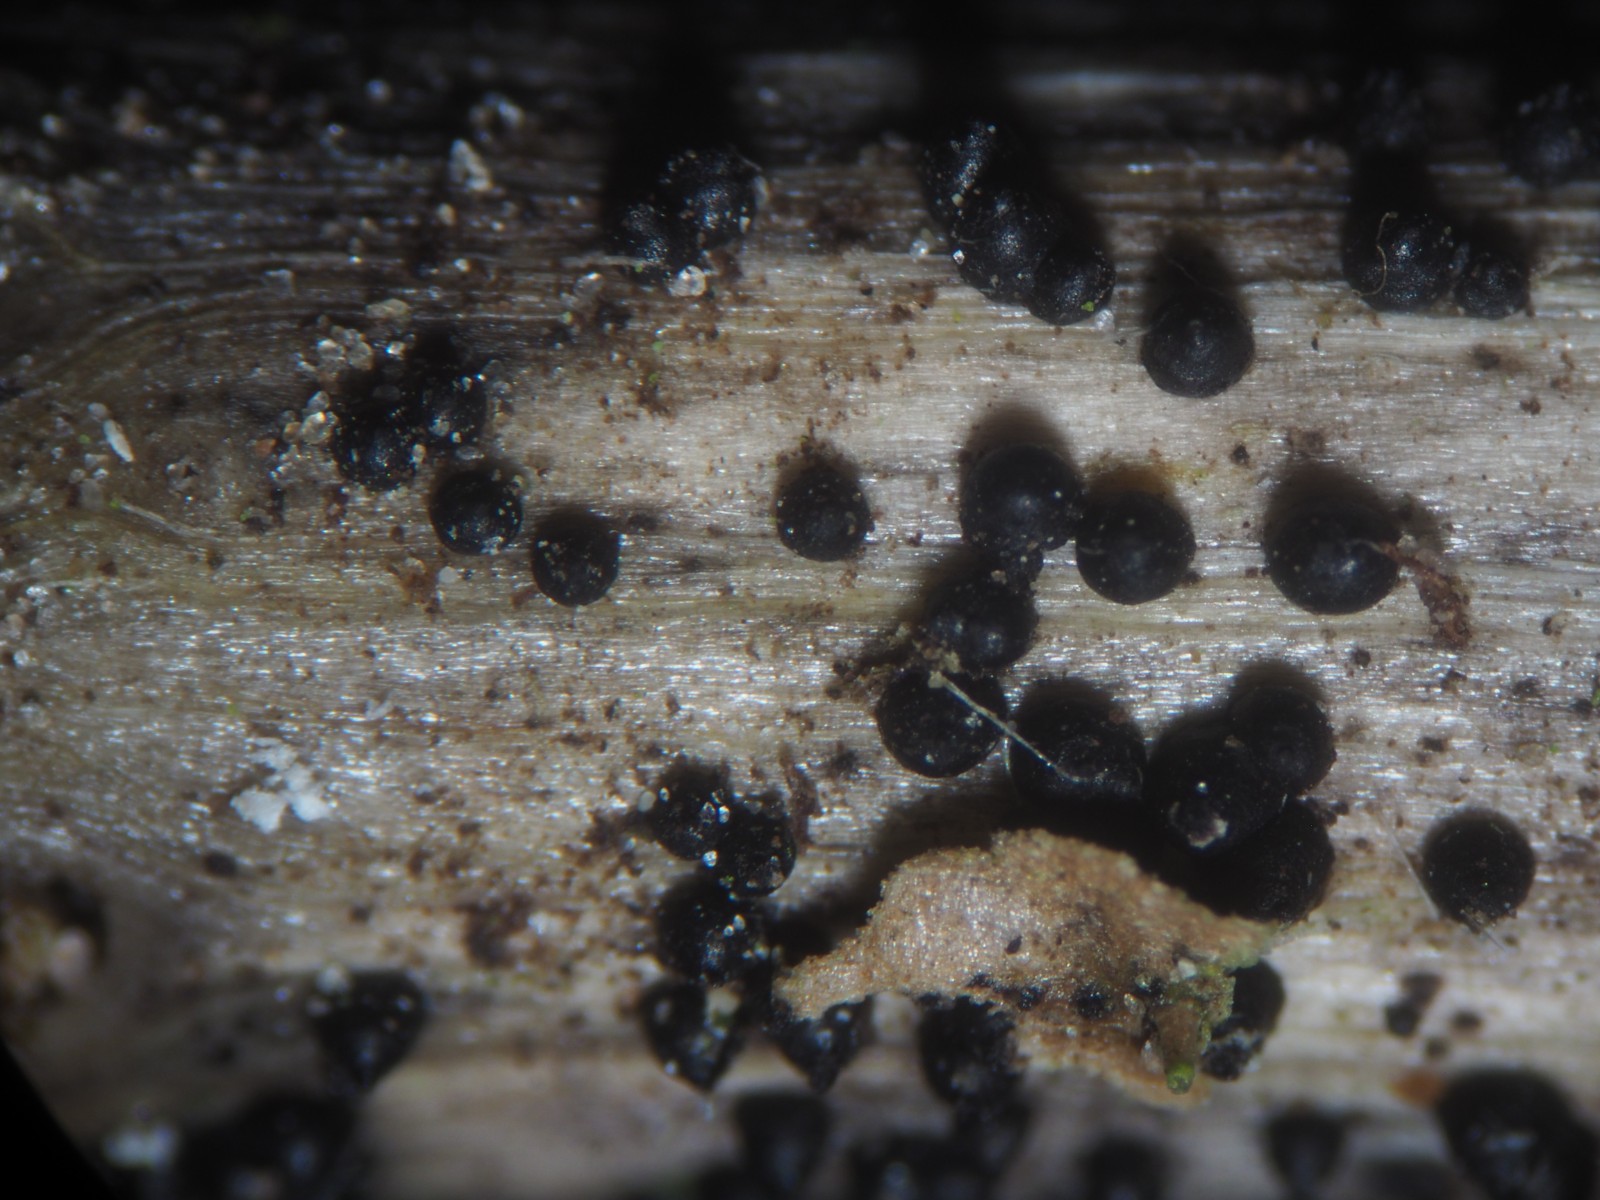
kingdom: Fungi
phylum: Ascomycota
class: Dothideomycetes
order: Pleosporales
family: Leptosphaeriaceae
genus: Leptosphaeria
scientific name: Leptosphaeria acuta
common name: spids kulkegle
